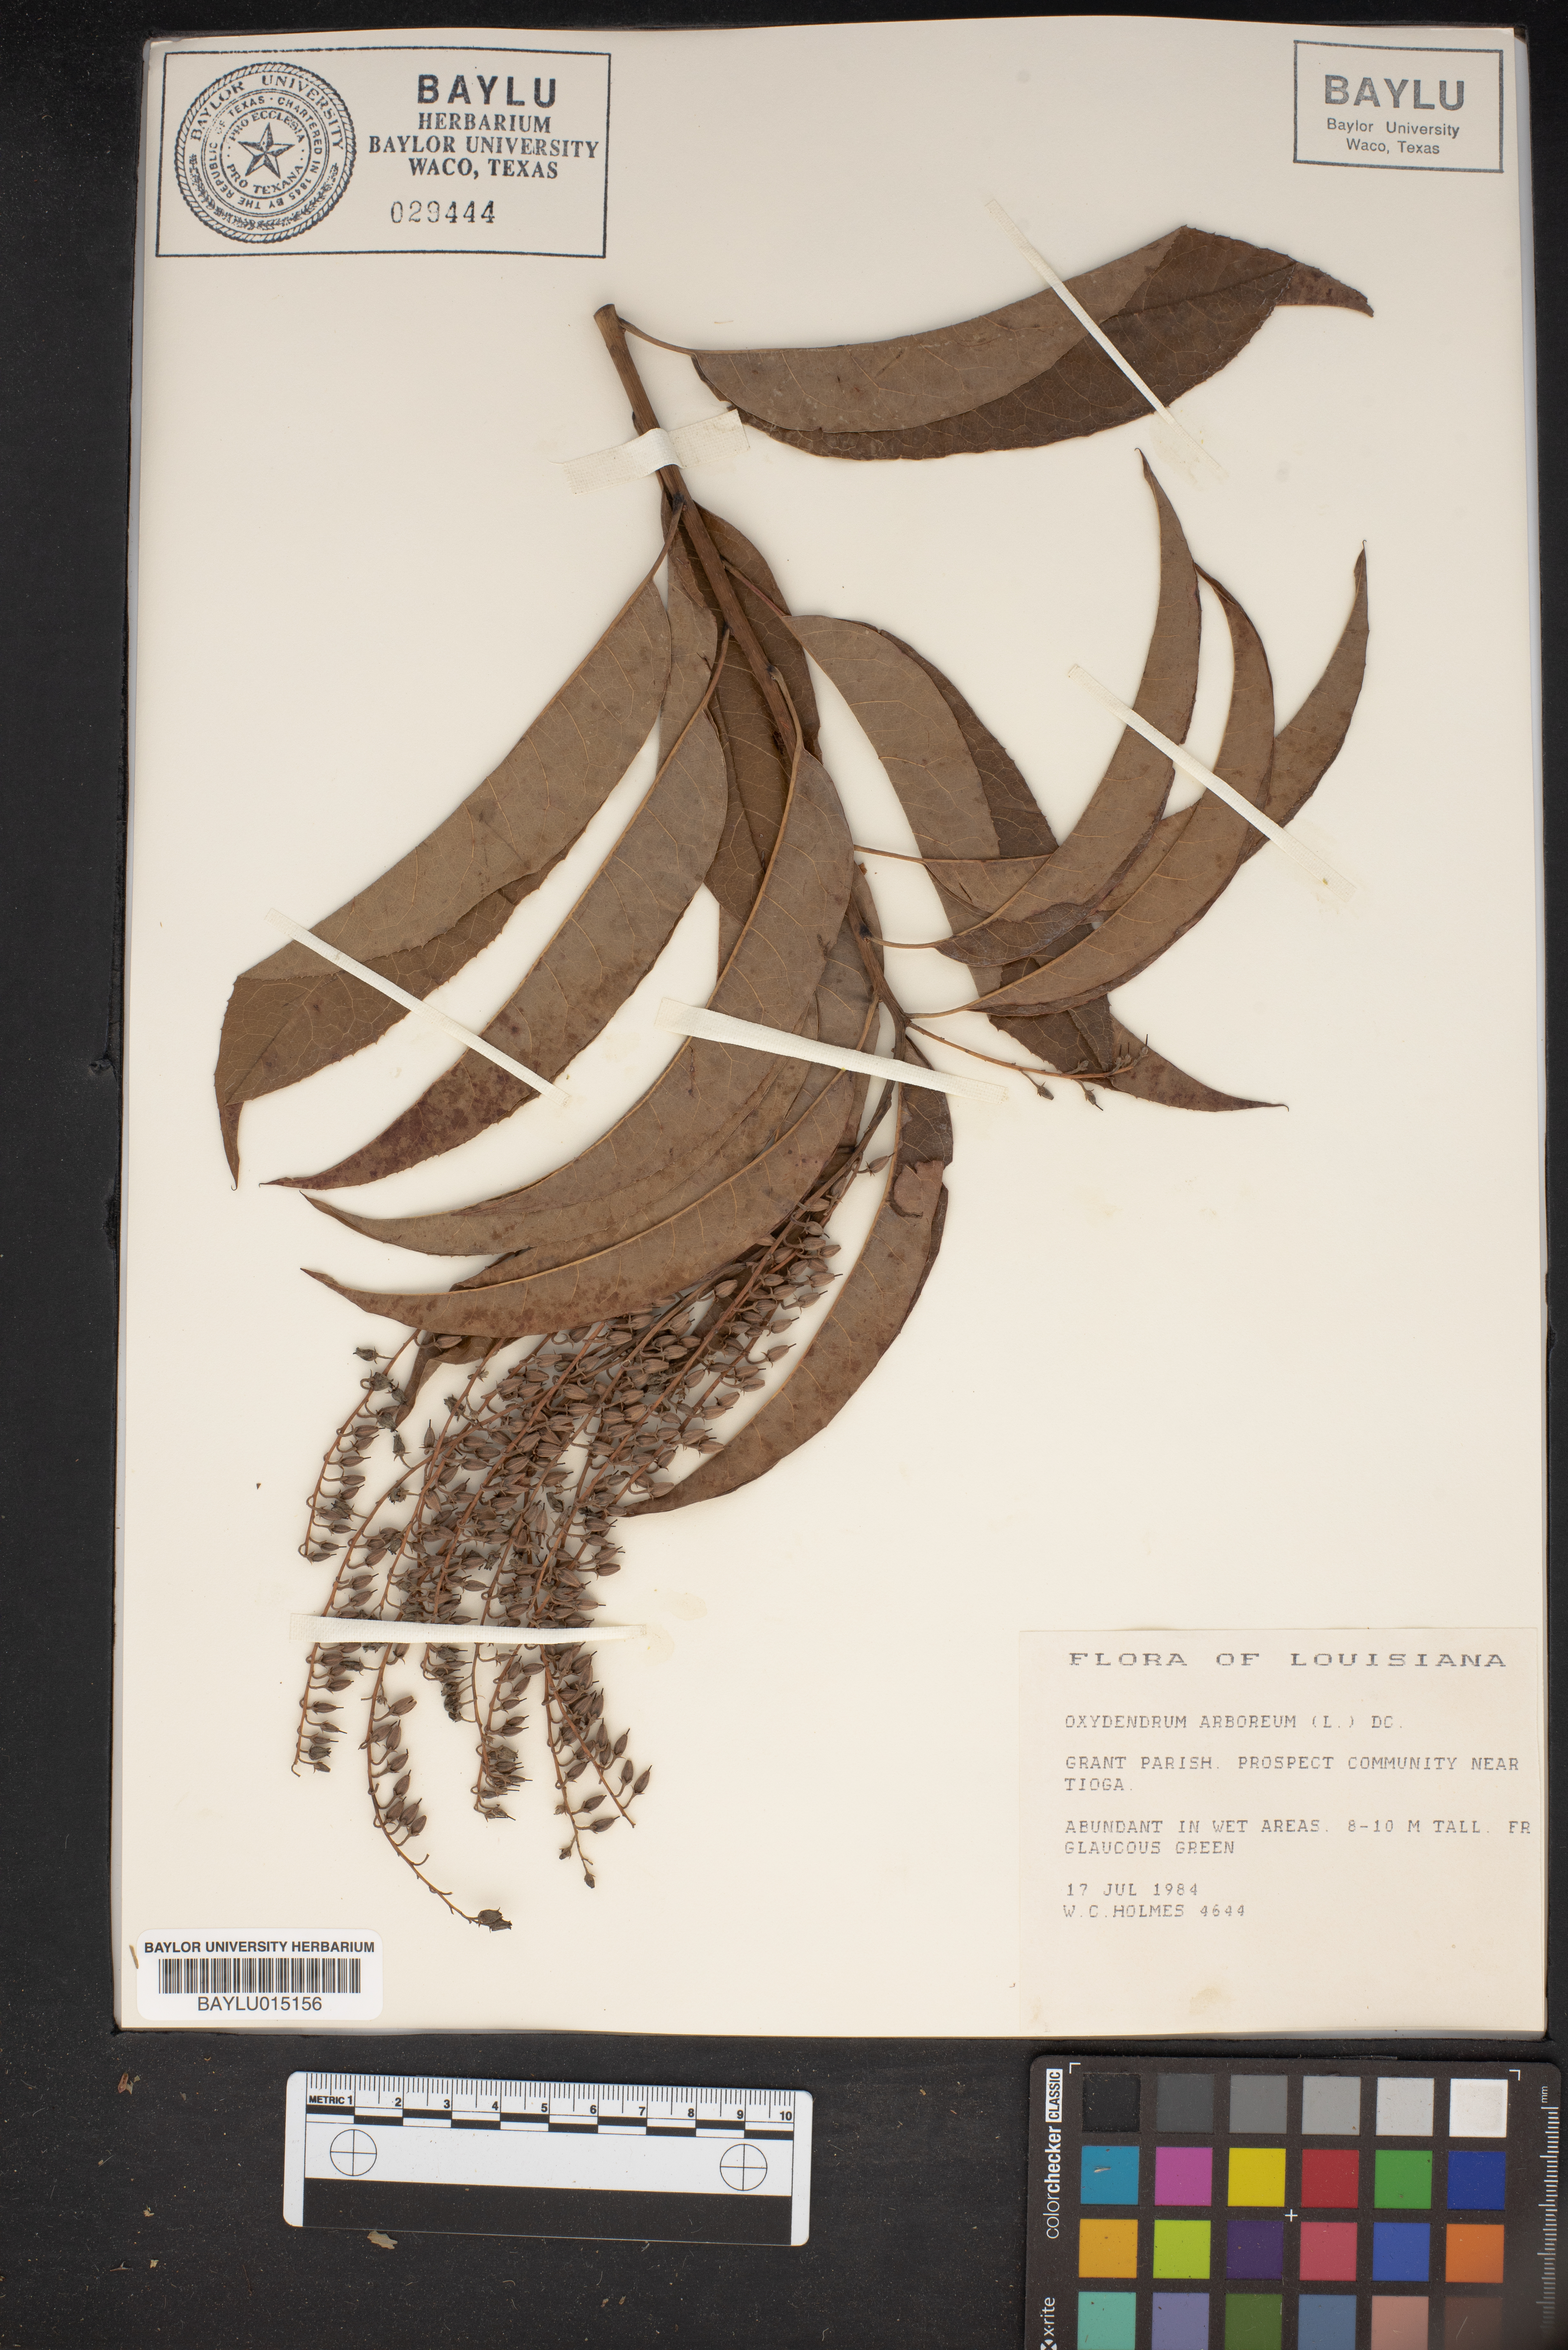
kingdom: Plantae
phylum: Tracheophyta
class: Magnoliopsida
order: Ericales
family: Ericaceae
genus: Oxydendrum
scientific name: Oxydendrum arboreum
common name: Sourwood
